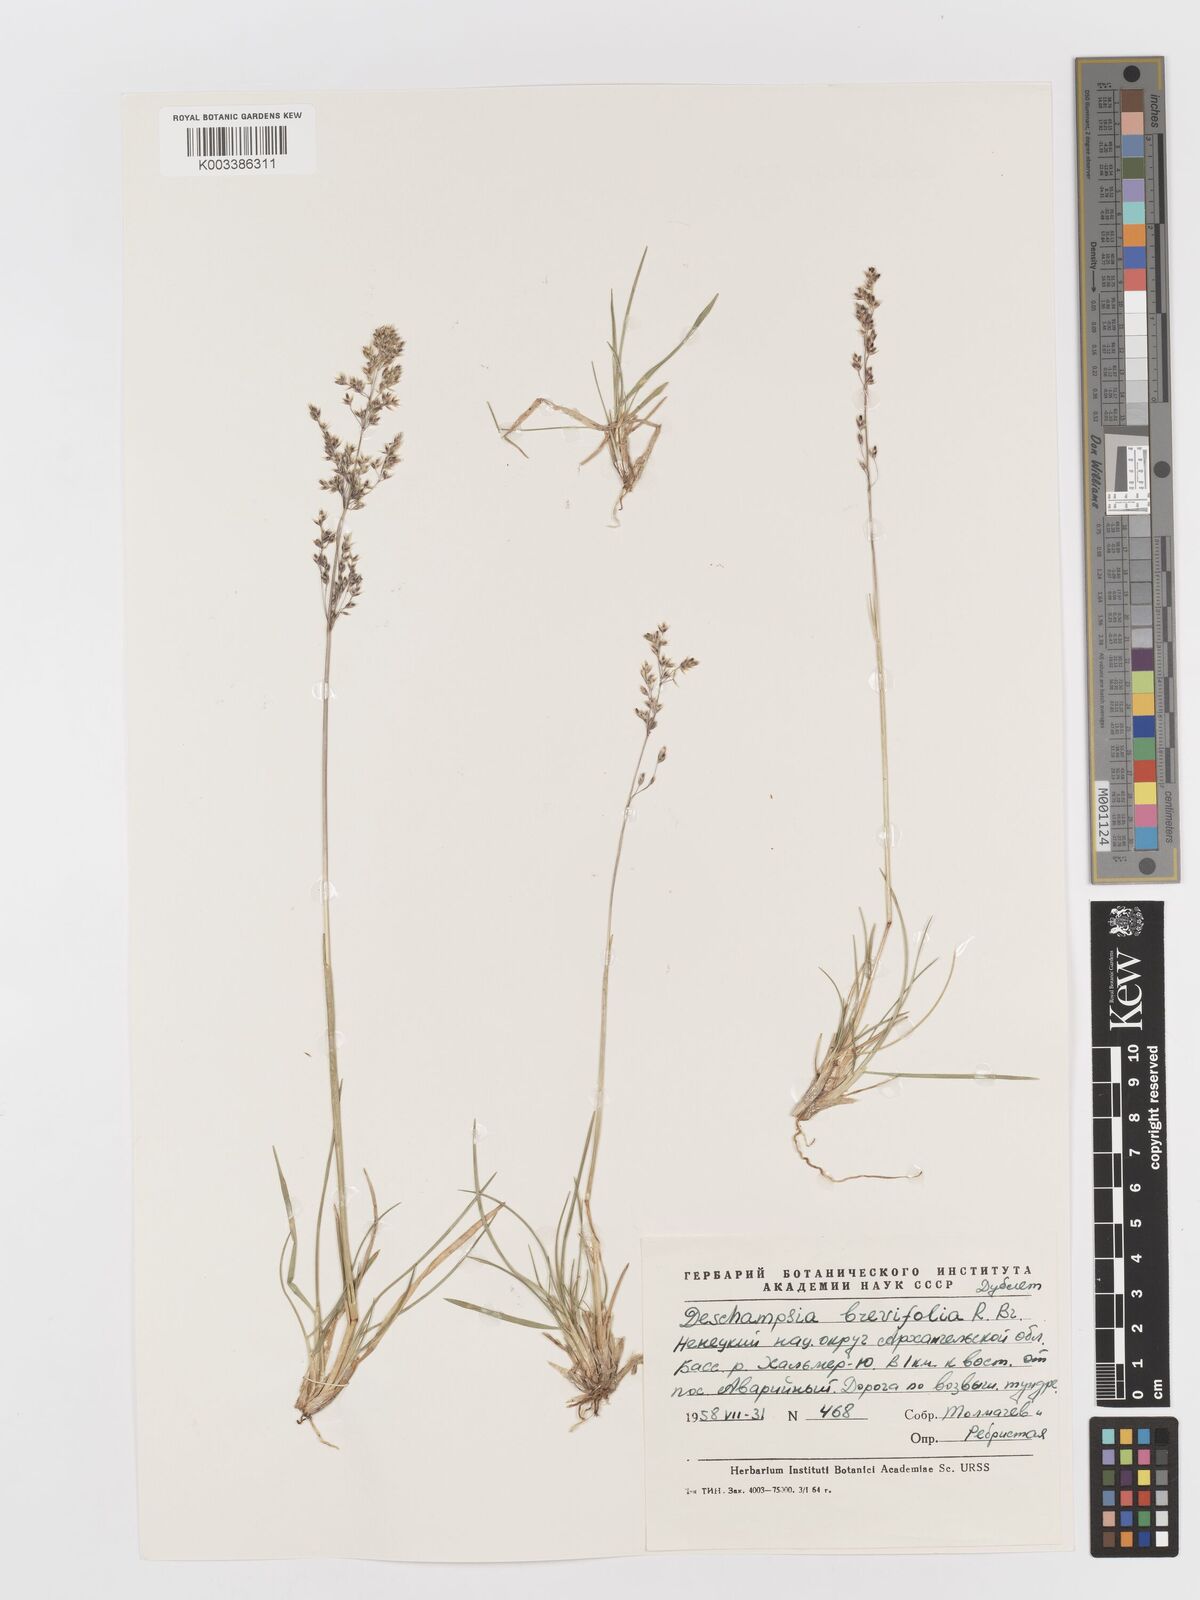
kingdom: Plantae
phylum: Tracheophyta
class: Liliopsida
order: Poales
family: Poaceae
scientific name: Poaceae
